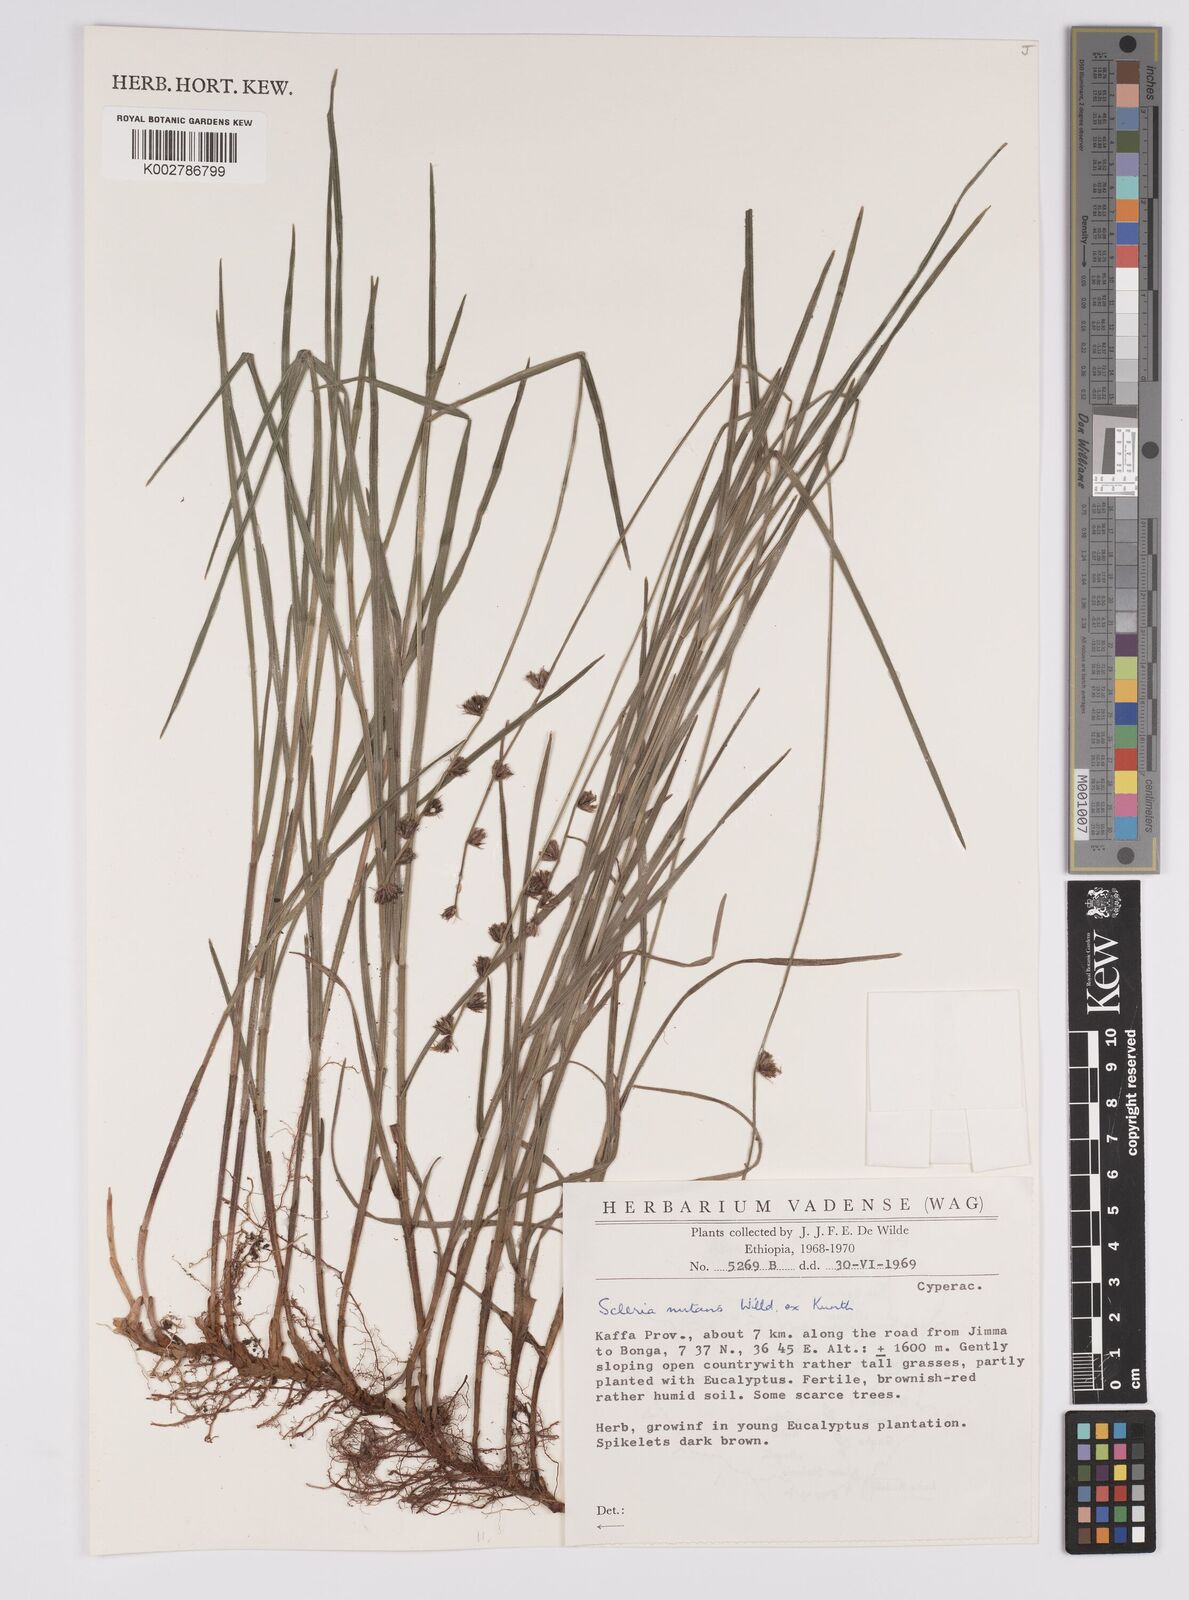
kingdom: Plantae
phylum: Tracheophyta
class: Liliopsida
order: Poales
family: Cyperaceae
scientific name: Cyperaceae
